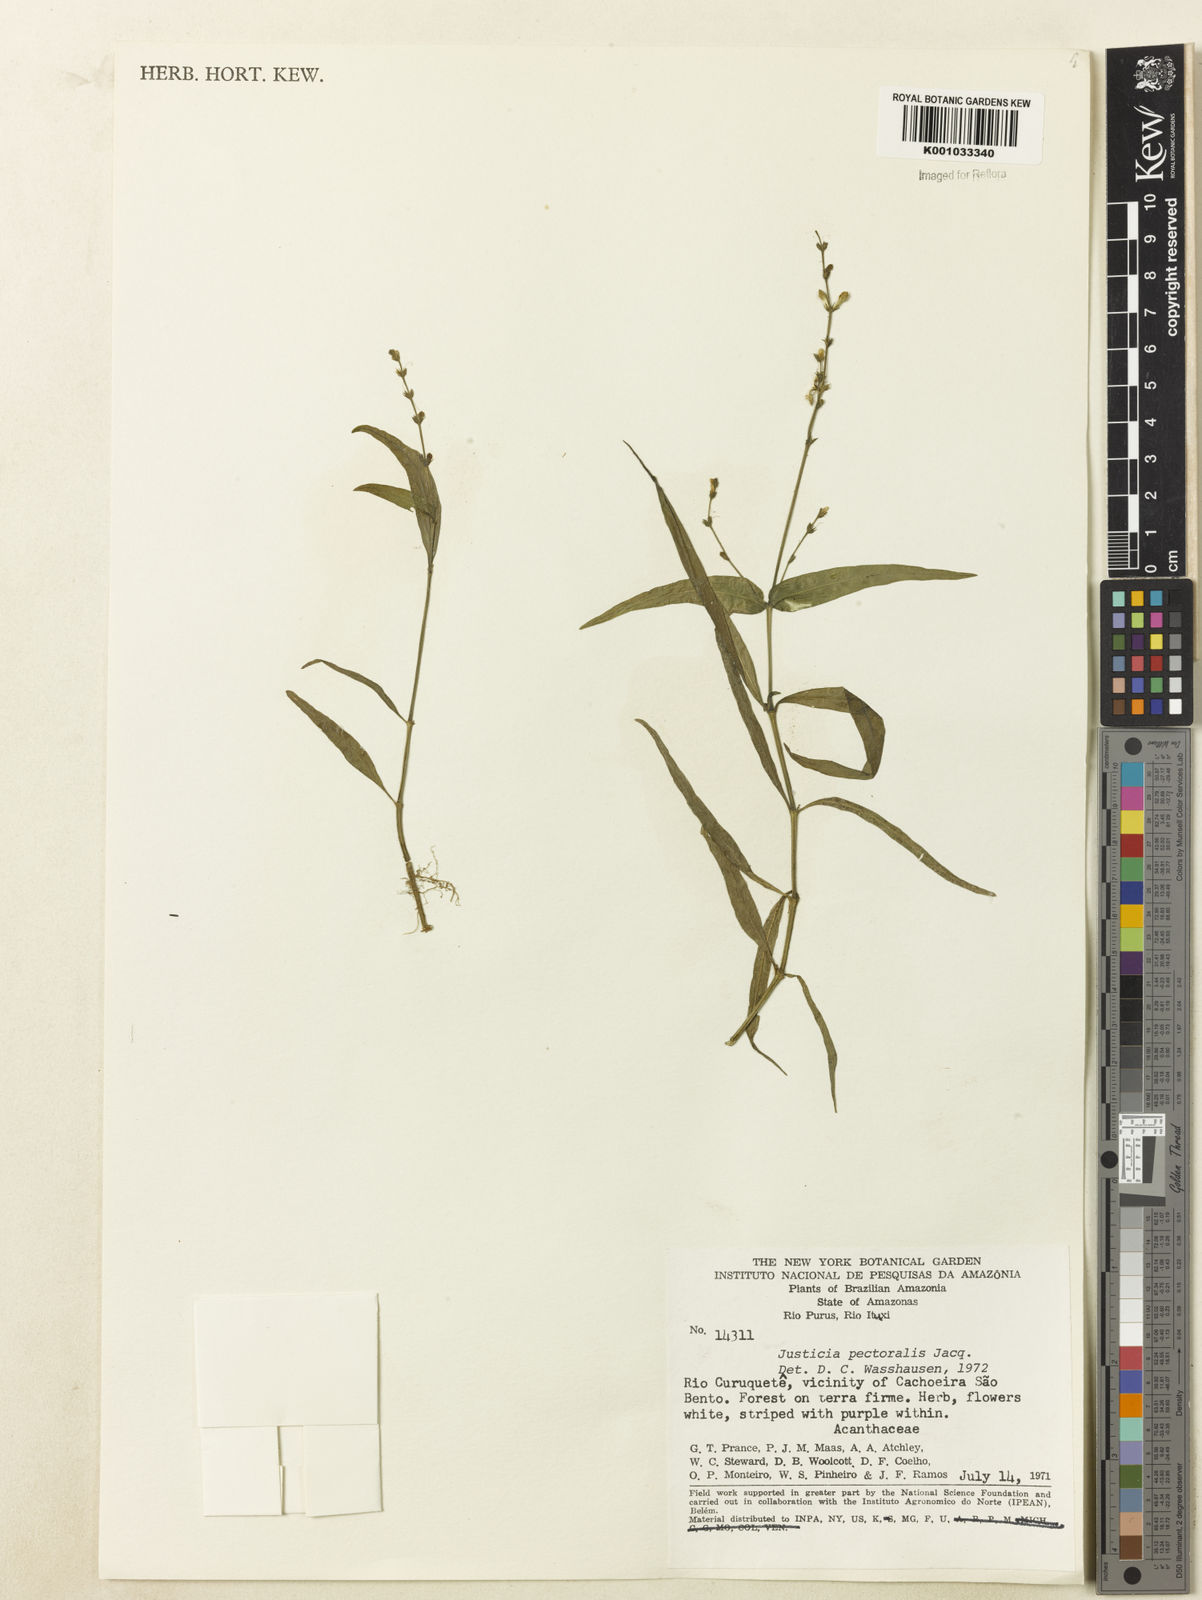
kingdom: Plantae
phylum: Tracheophyta
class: Magnoliopsida
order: Lamiales
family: Acanthaceae
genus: Dianthera
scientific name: Dianthera pectoralis
